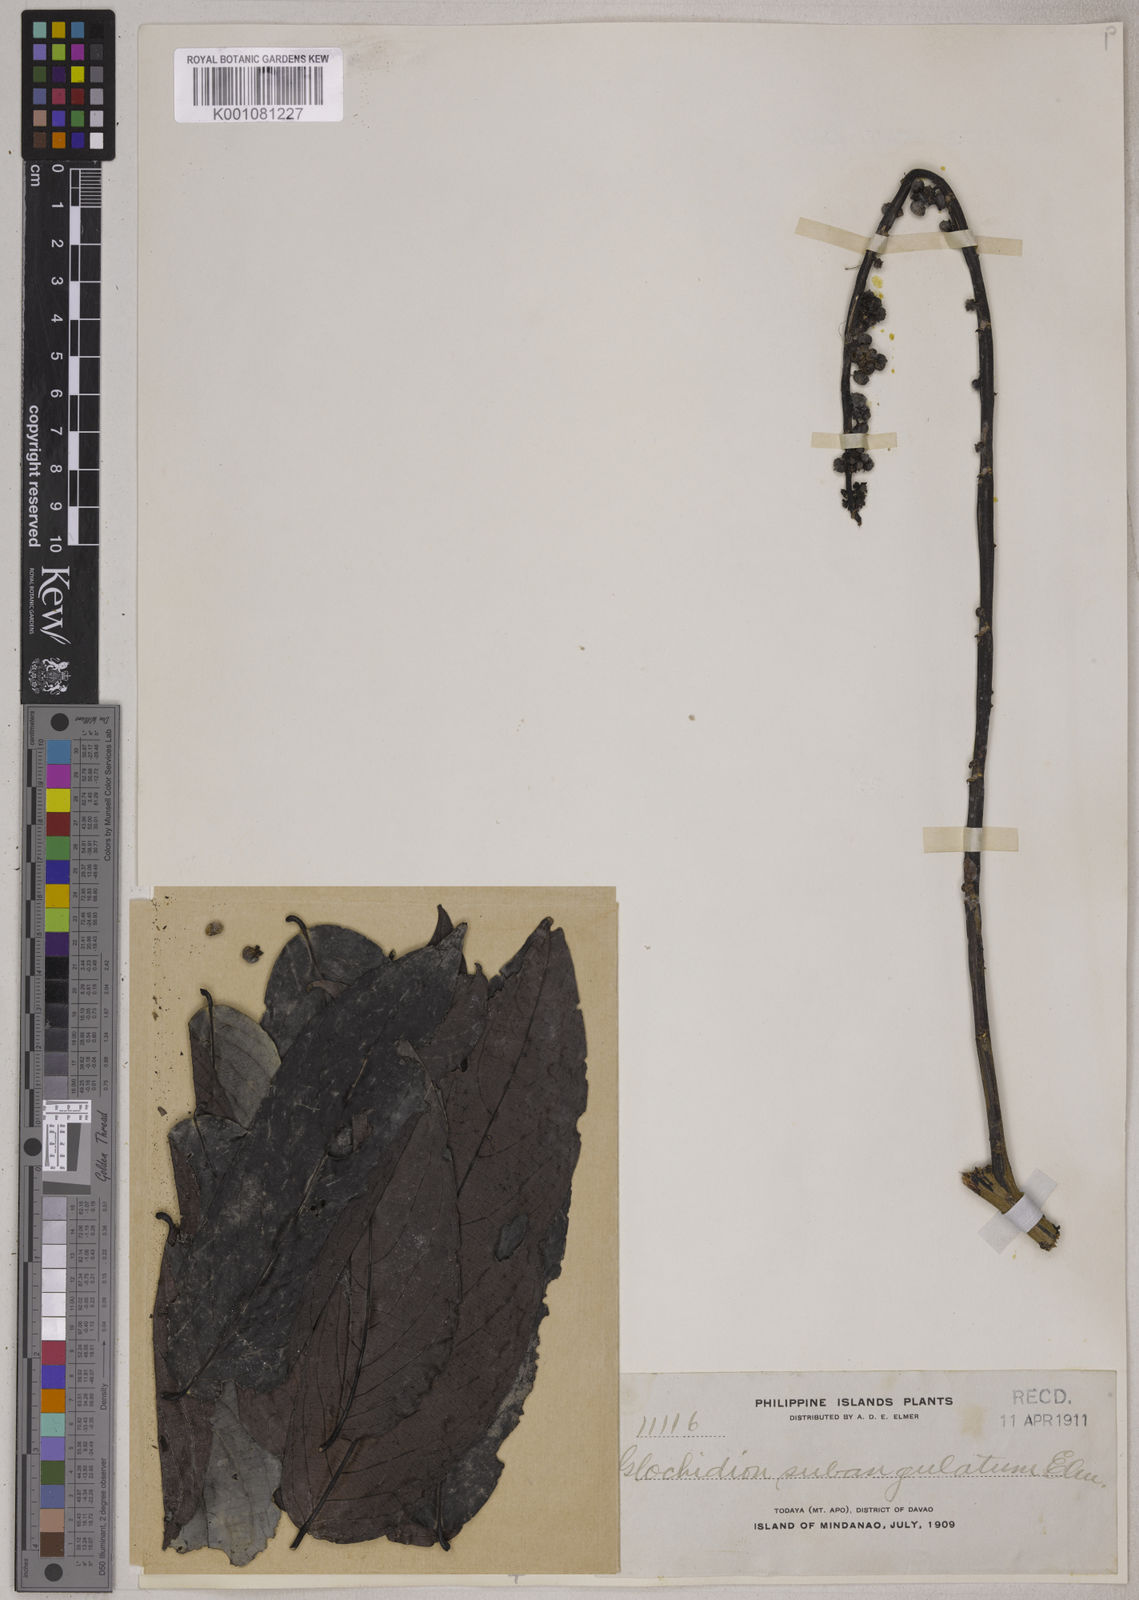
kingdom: Plantae
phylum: Tracheophyta
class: Magnoliopsida
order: Malpighiales
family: Phyllanthaceae
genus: Glochidion
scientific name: Glochidion urophylloides
